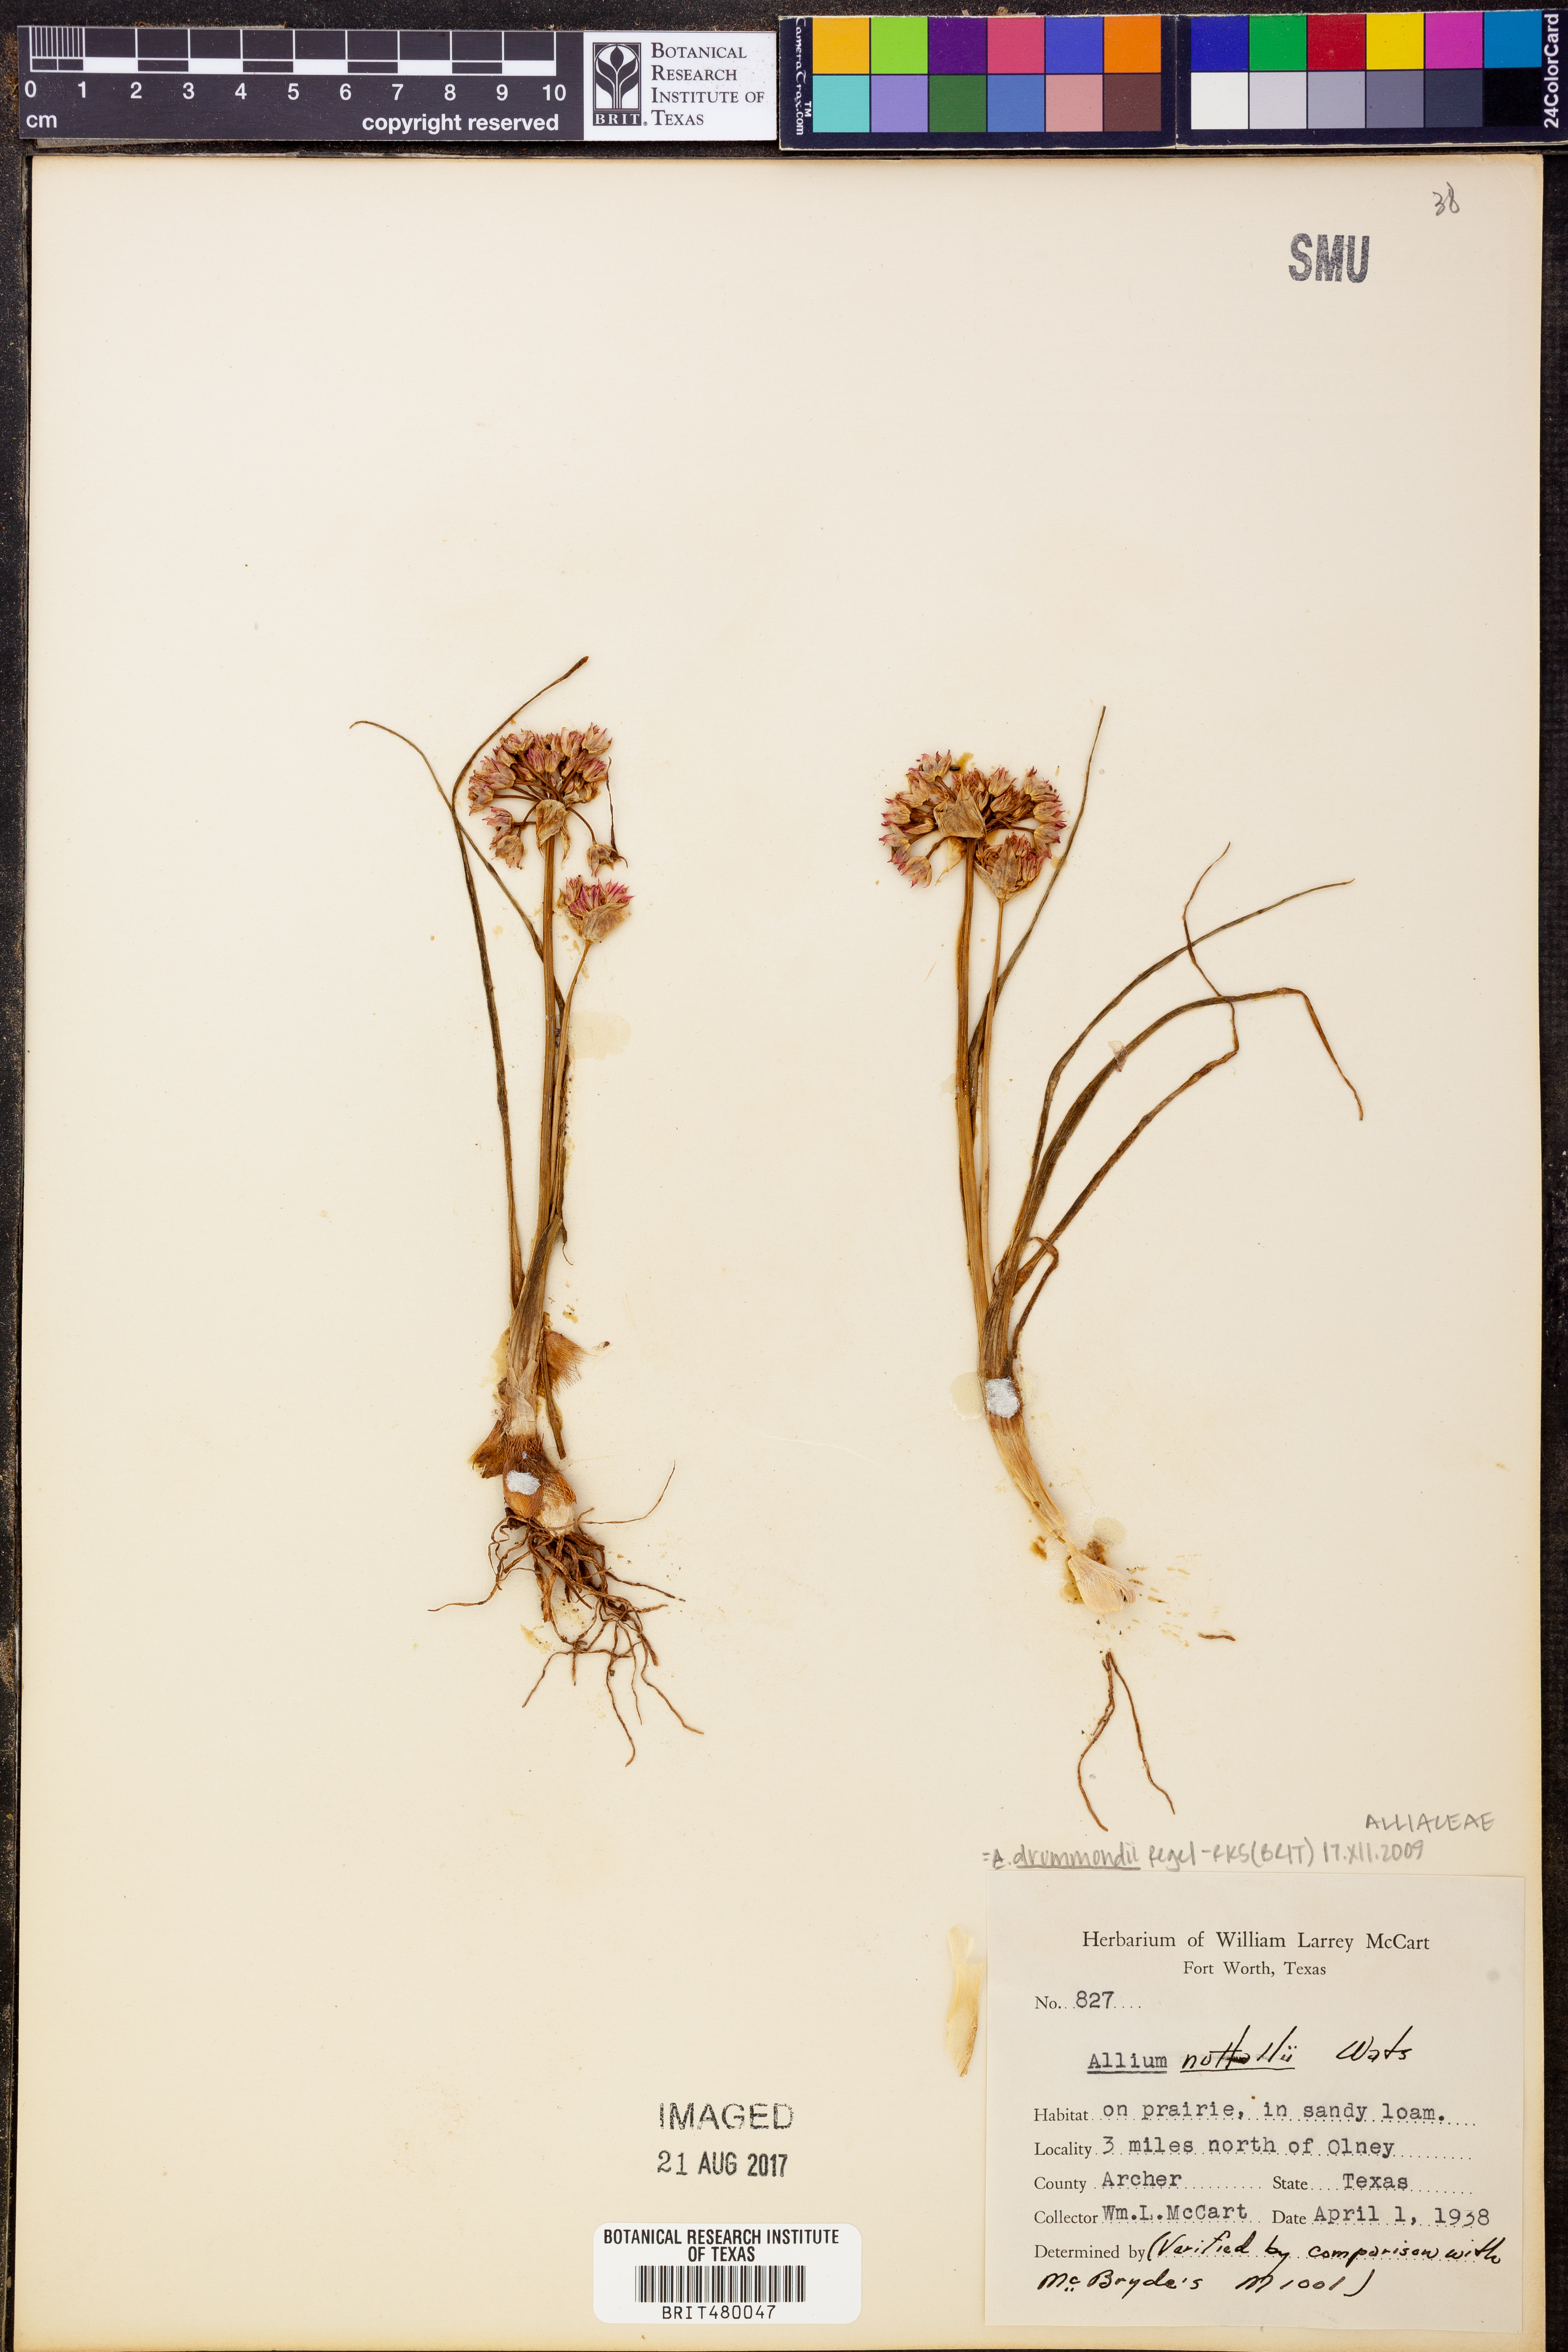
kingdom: Plantae
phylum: Tracheophyta
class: Liliopsida
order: Asparagales
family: Amaryllidaceae
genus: Allium
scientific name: Allium drummondii
